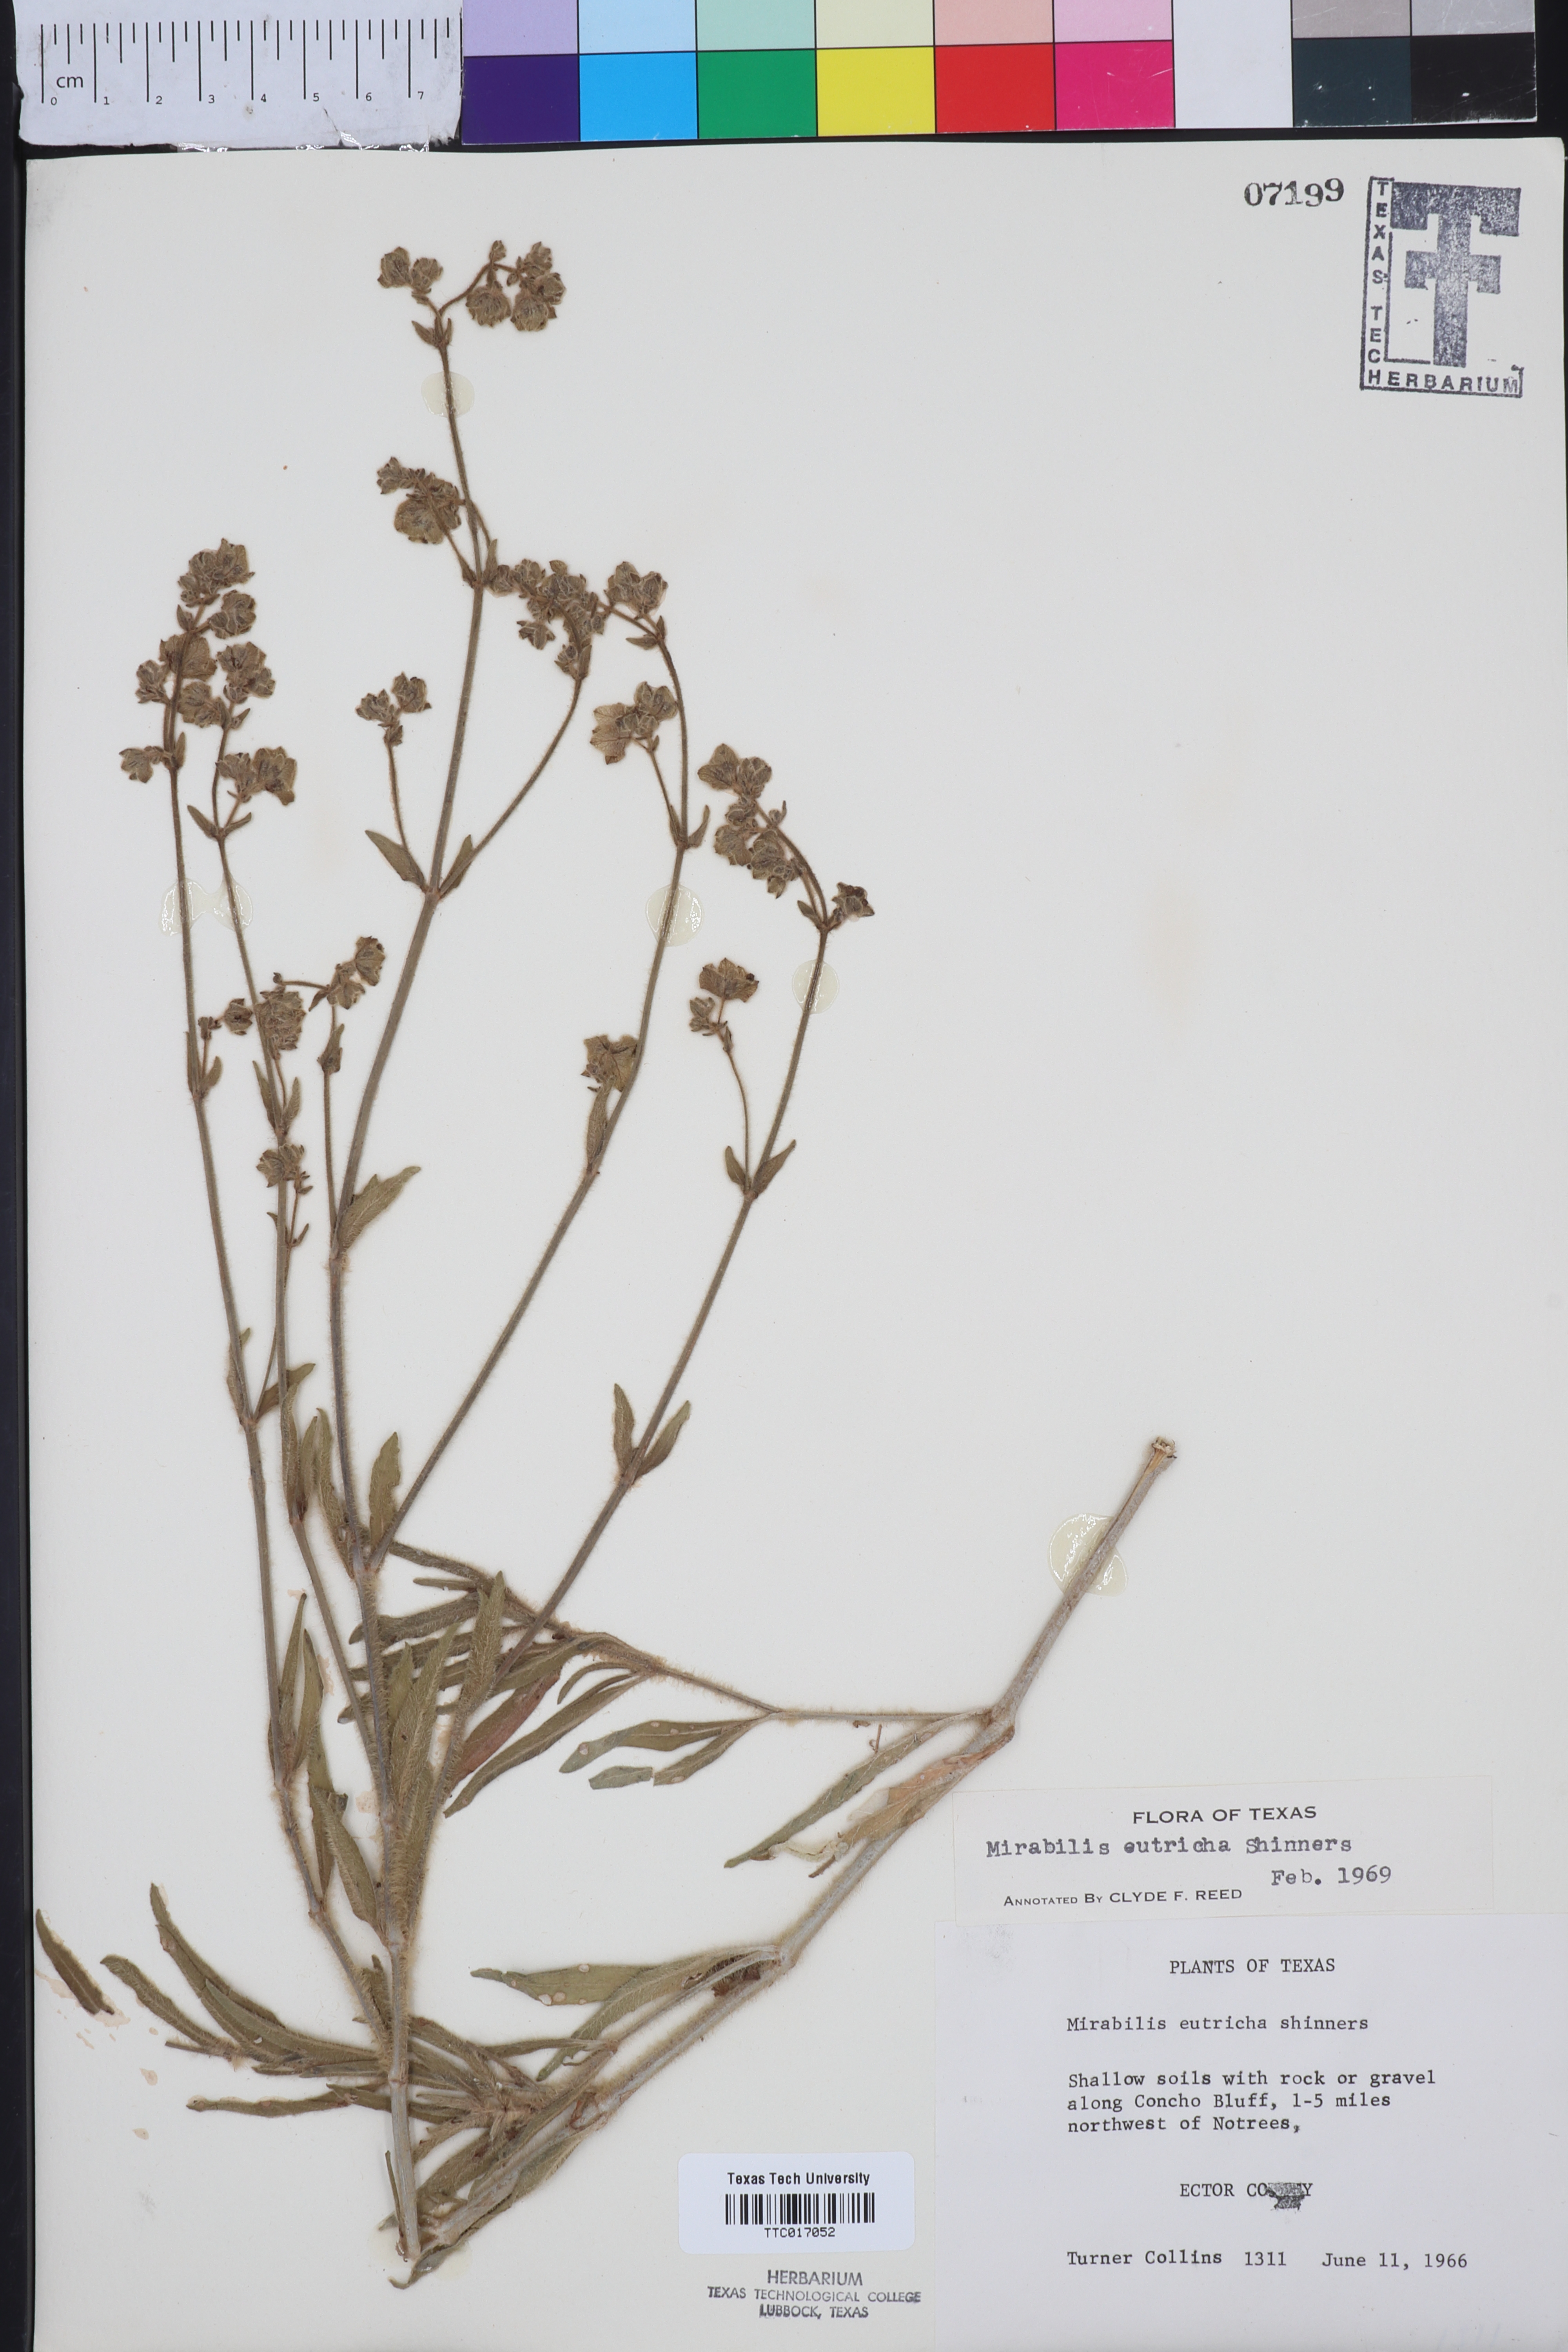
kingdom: Plantae
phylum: Tracheophyta
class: Magnoliopsida
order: Caryophyllales
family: Nyctaginaceae
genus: Mirabilis
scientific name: Mirabilis albida
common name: Hairy four-o'clock
